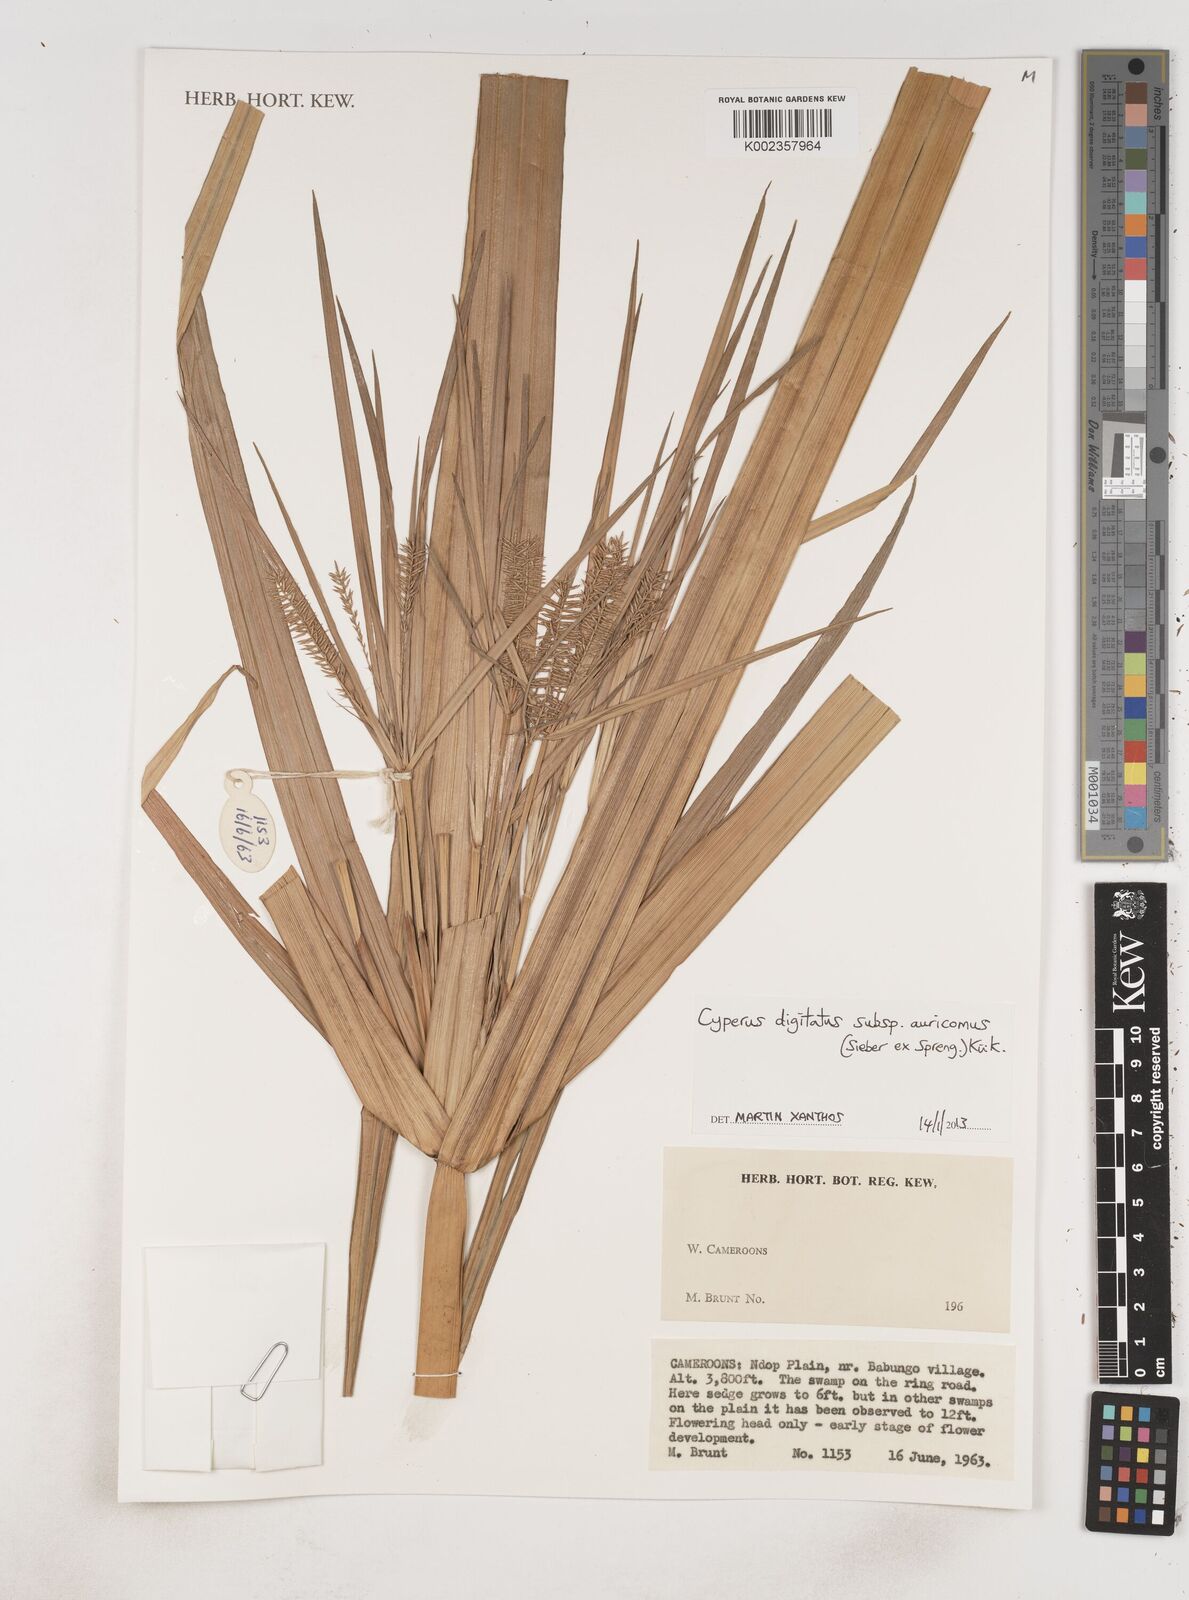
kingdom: Plantae
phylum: Tracheophyta
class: Liliopsida
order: Poales
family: Cyperaceae
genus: Cyperus
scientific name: Cyperus digitatus
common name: Finger flatsedge
